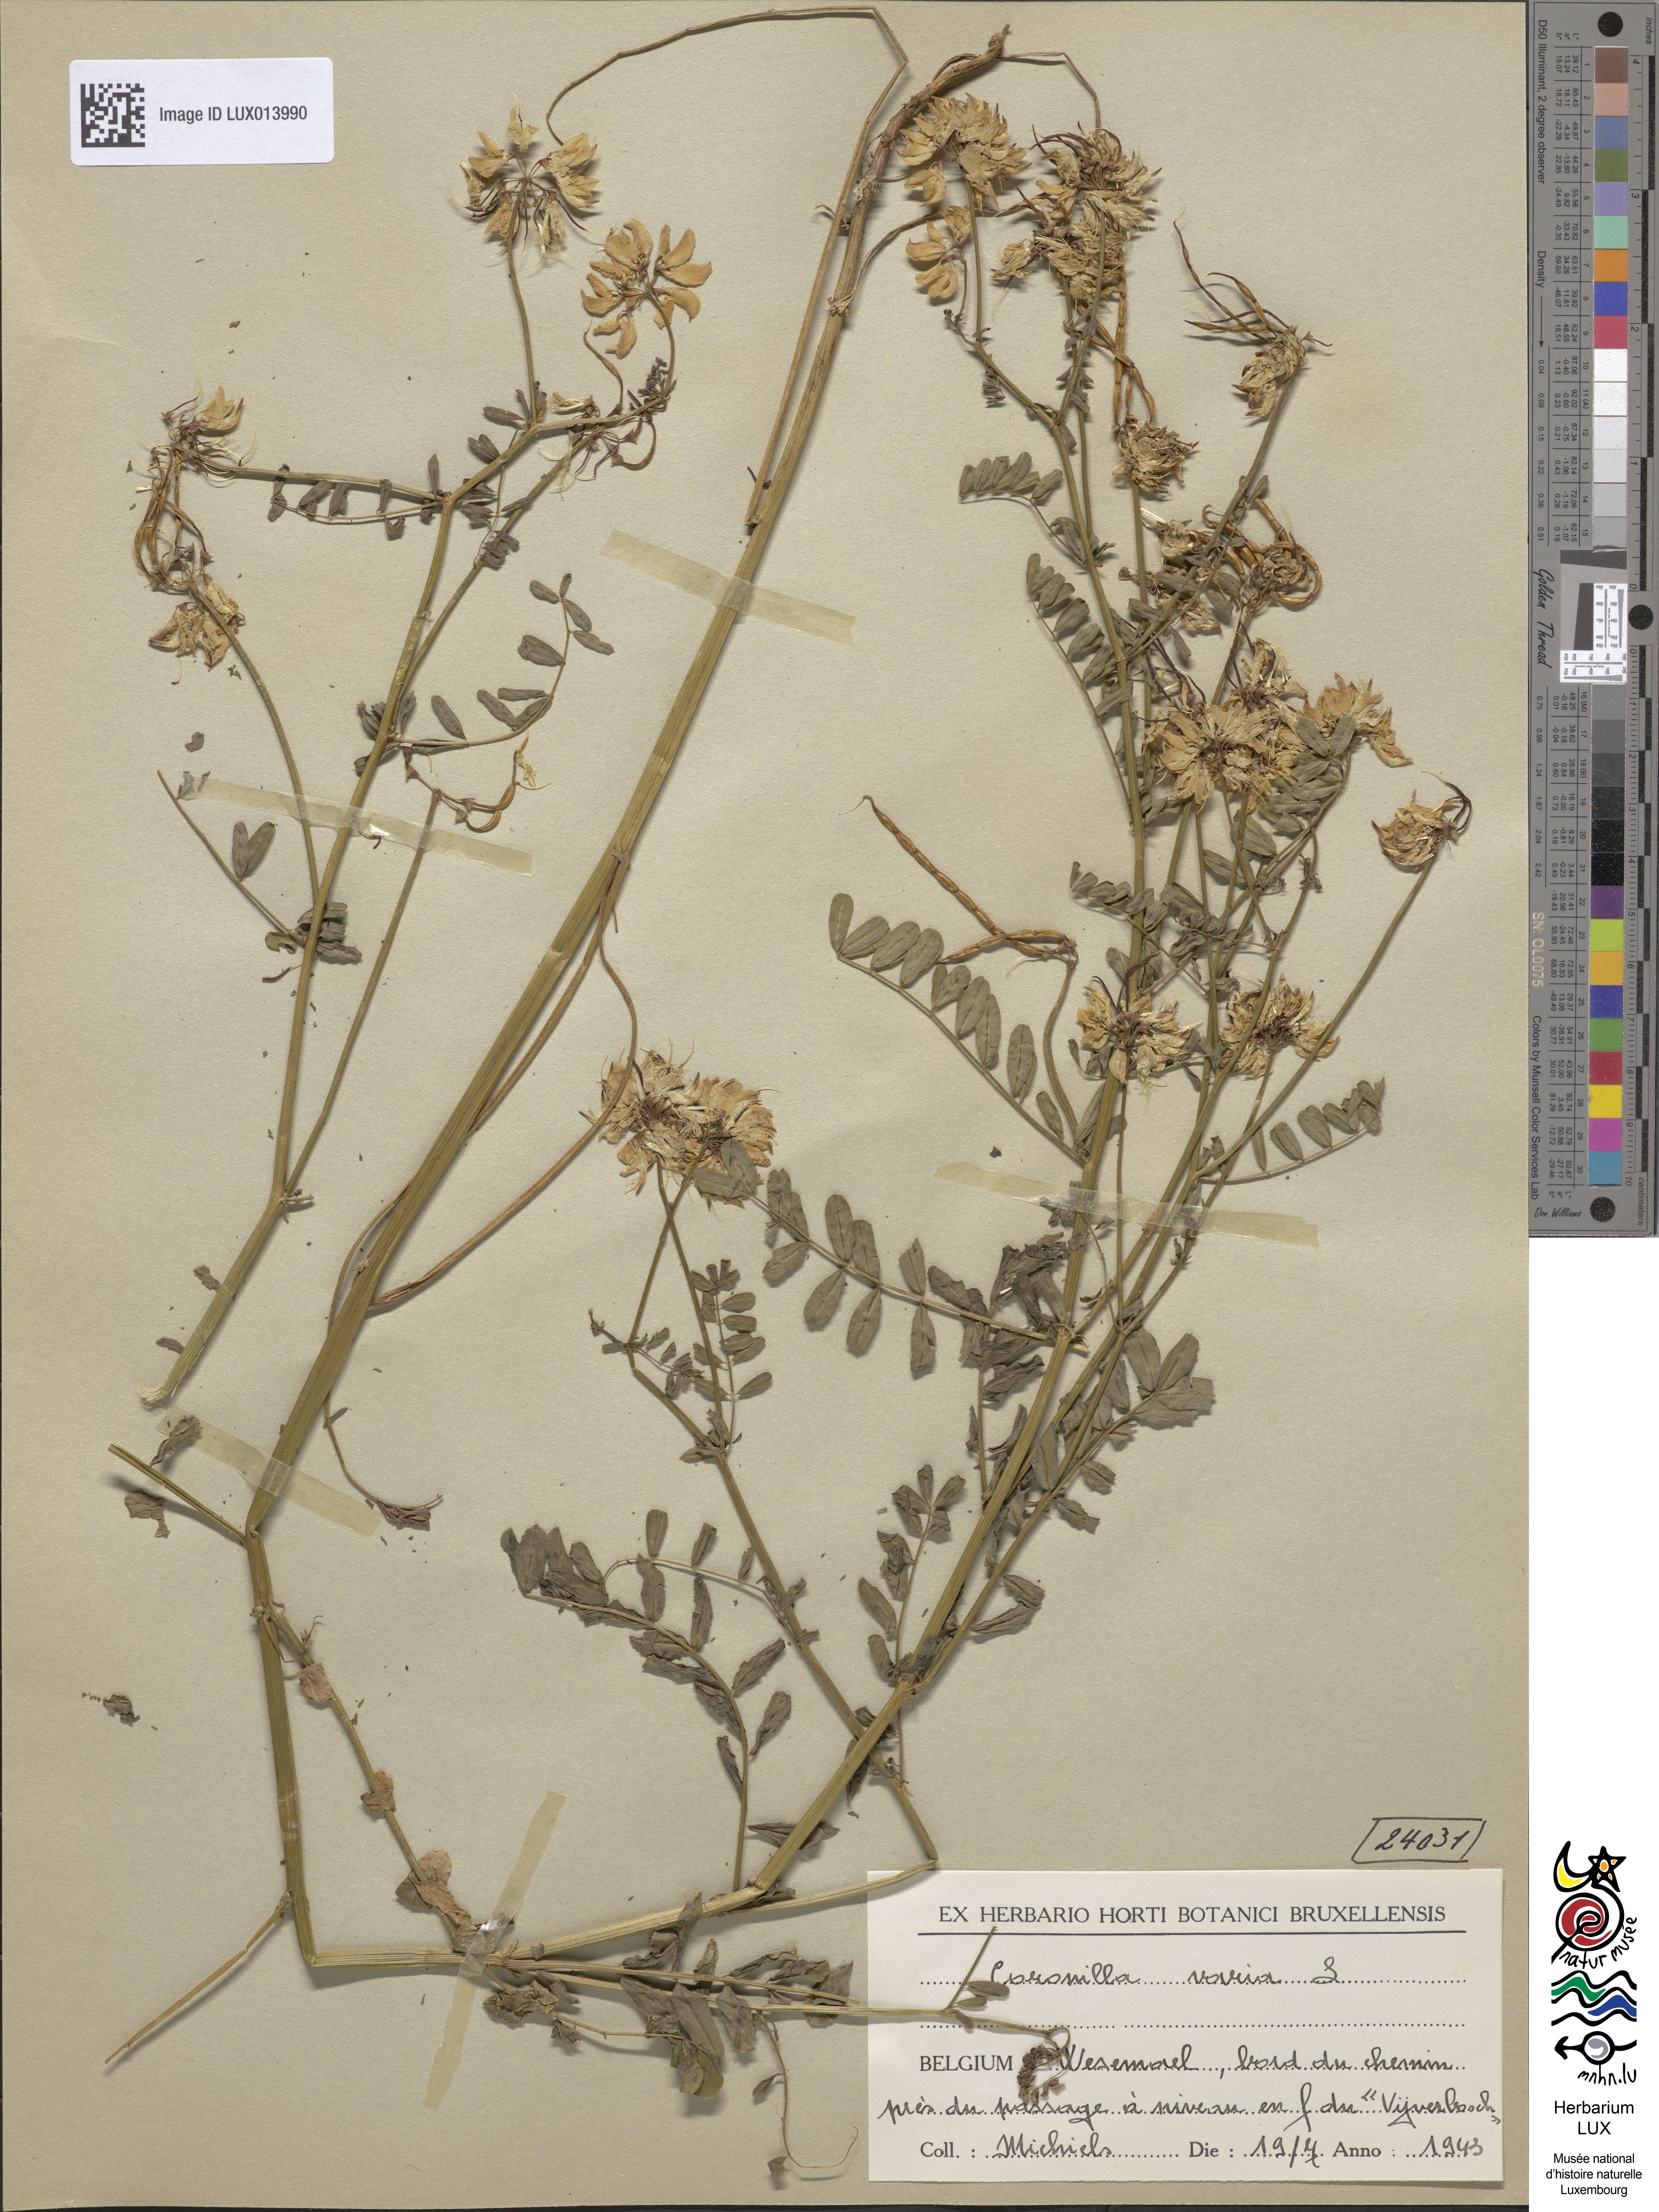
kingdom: Plantae
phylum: Tracheophyta
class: Magnoliopsida
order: Fabales
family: Fabaceae
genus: Coronilla
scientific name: Coronilla varia
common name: Crownvetch
